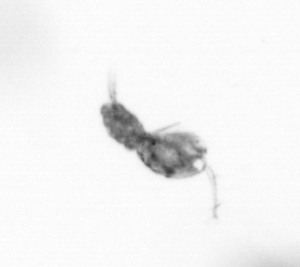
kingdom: Animalia
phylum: Arthropoda
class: Copepoda
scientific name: Copepoda
